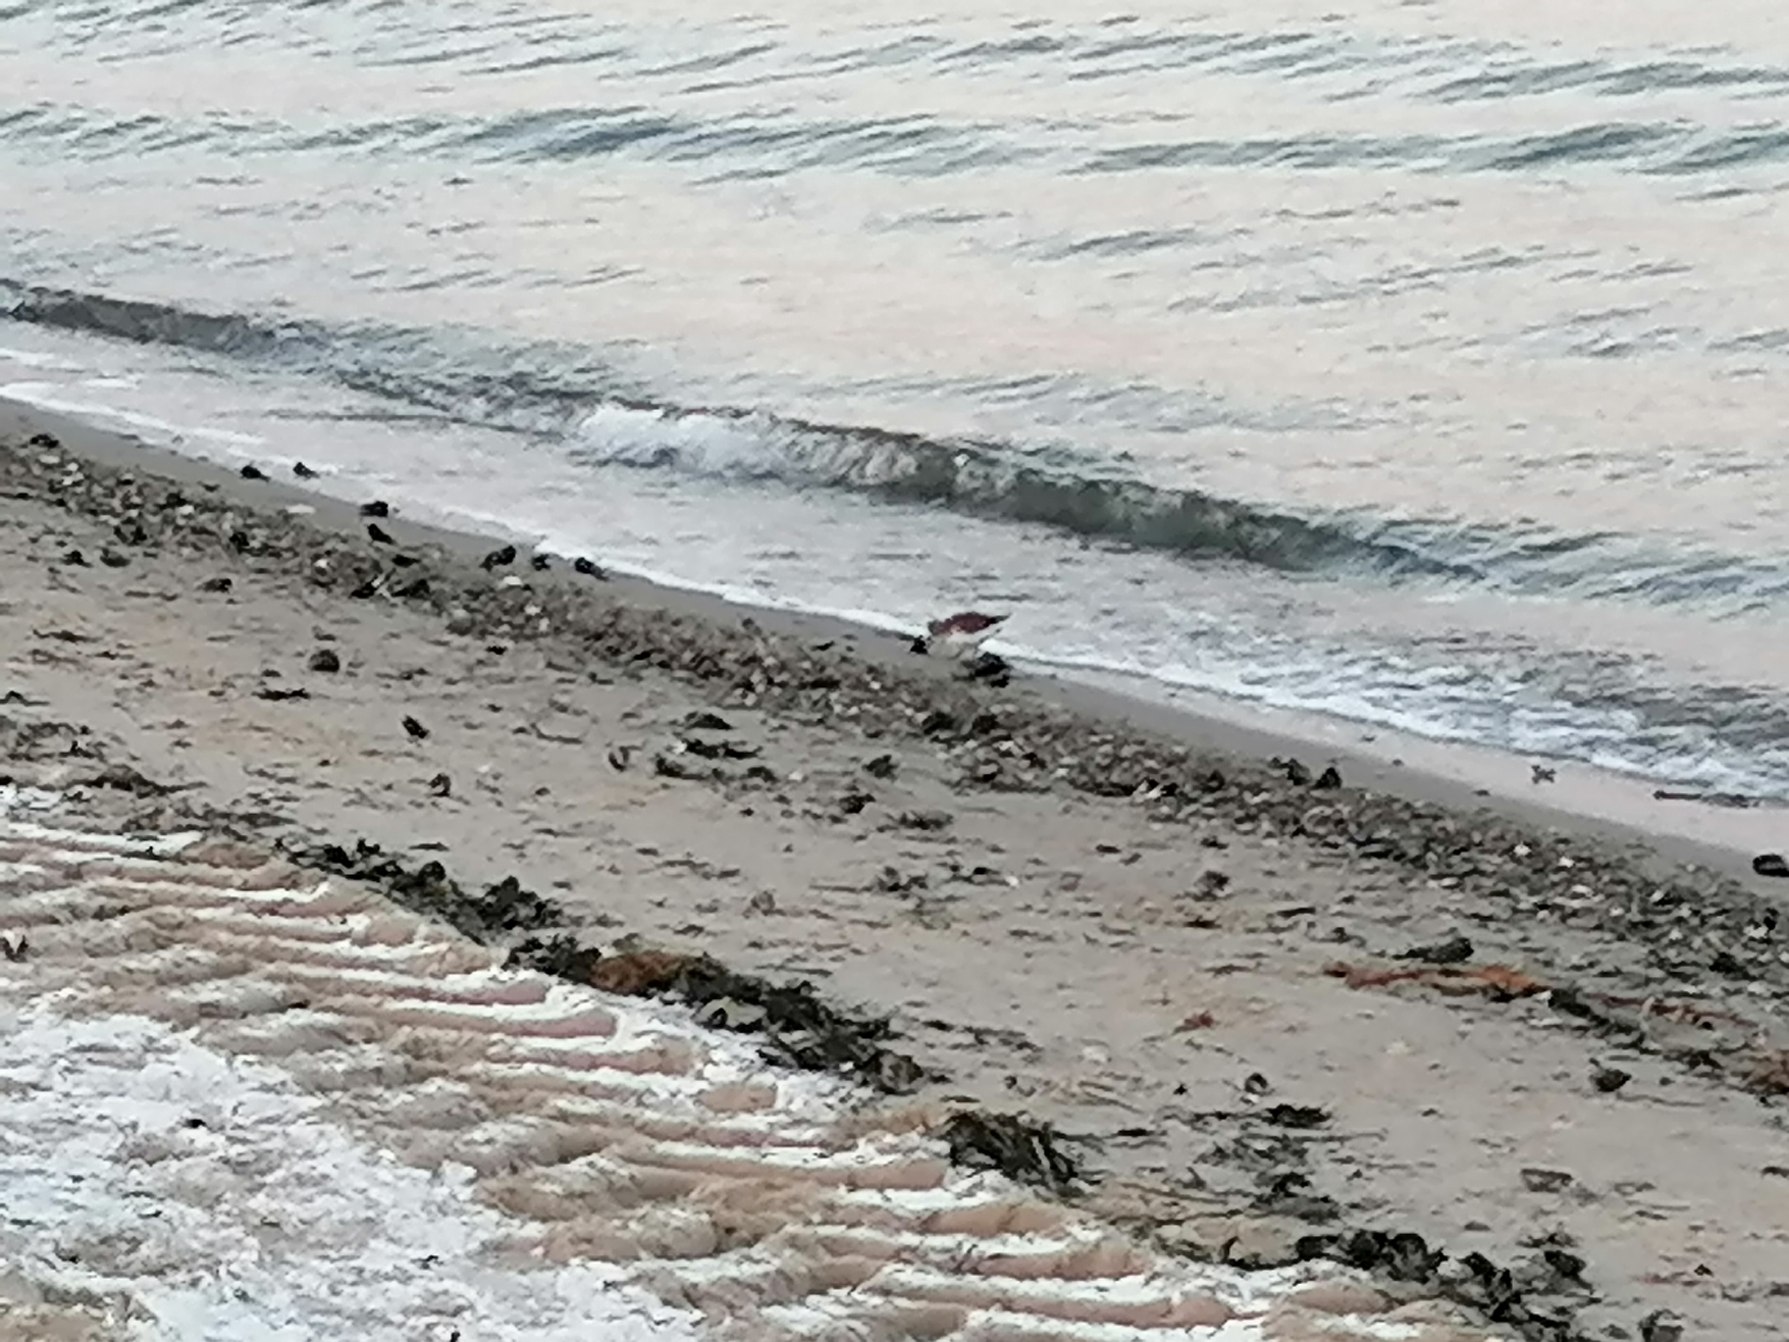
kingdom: Animalia
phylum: Chordata
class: Aves
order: Charadriiformes
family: Scolopacidae
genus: Calidris
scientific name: Calidris alpina
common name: Almindelig ryle
